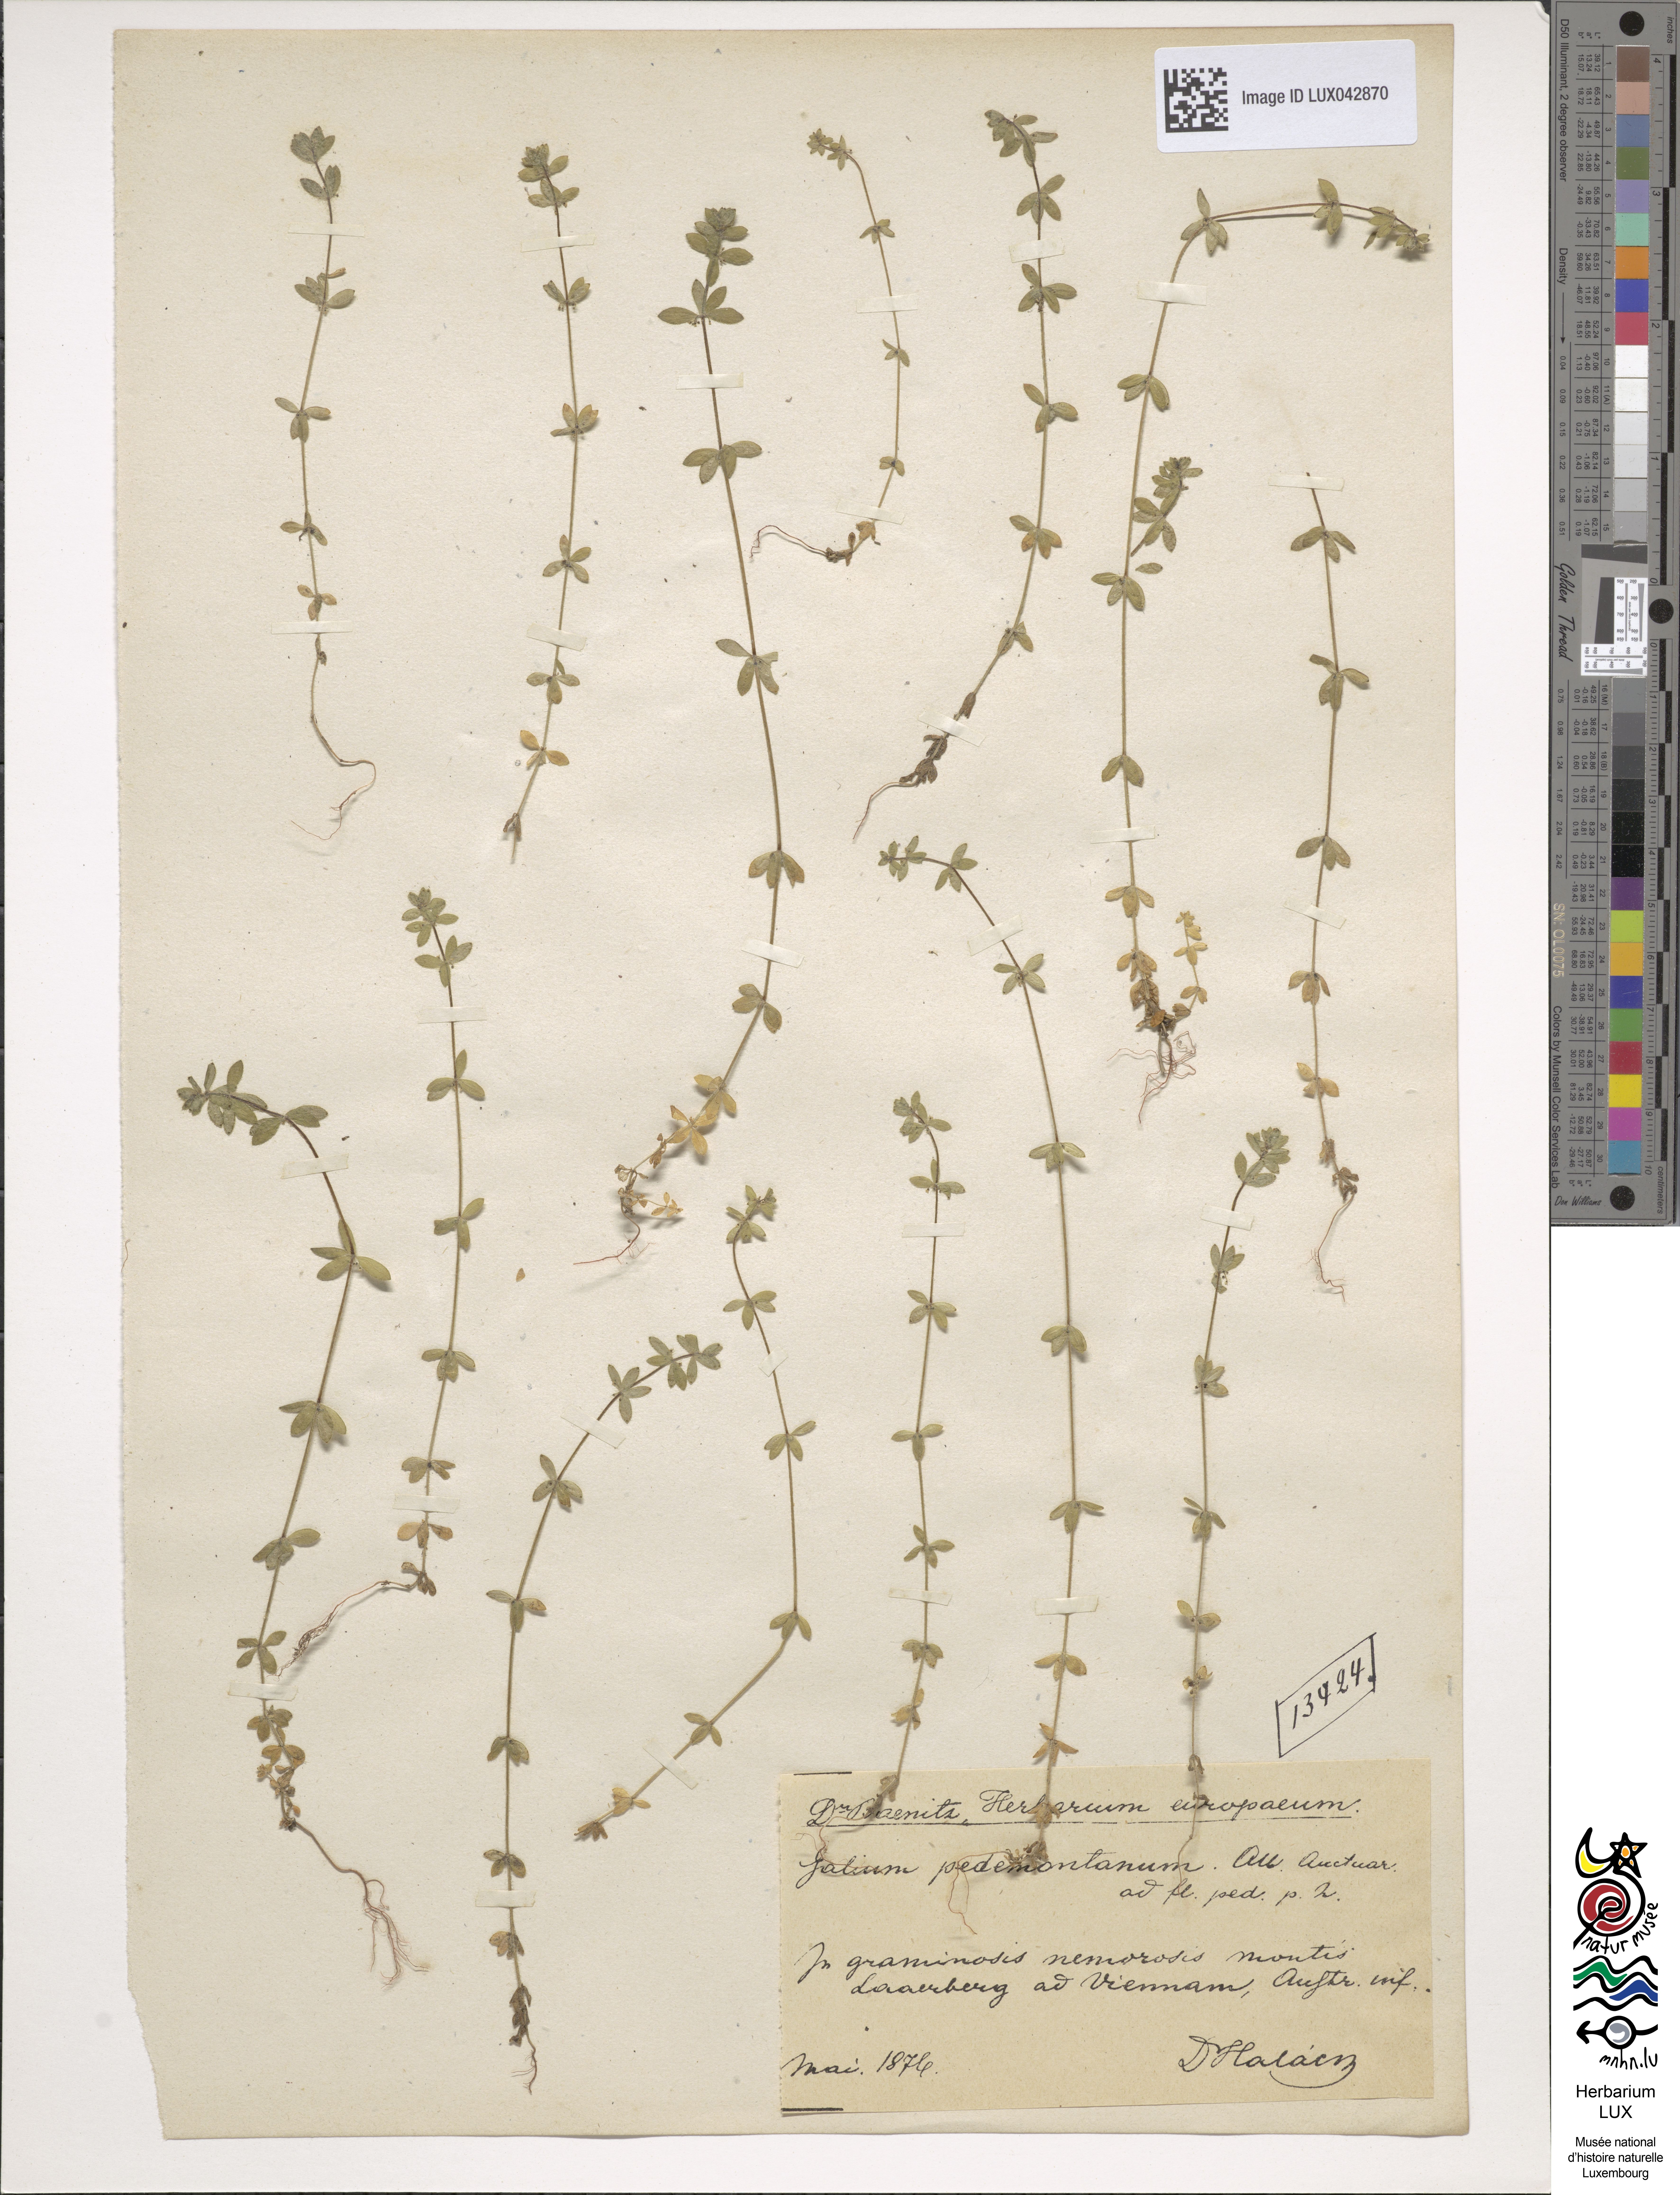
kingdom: Plantae
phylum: Tracheophyta
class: Magnoliopsida
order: Gentianales
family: Rubiaceae
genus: Cruciata
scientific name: Cruciata pedemontana
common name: Piedmont bedstraw
